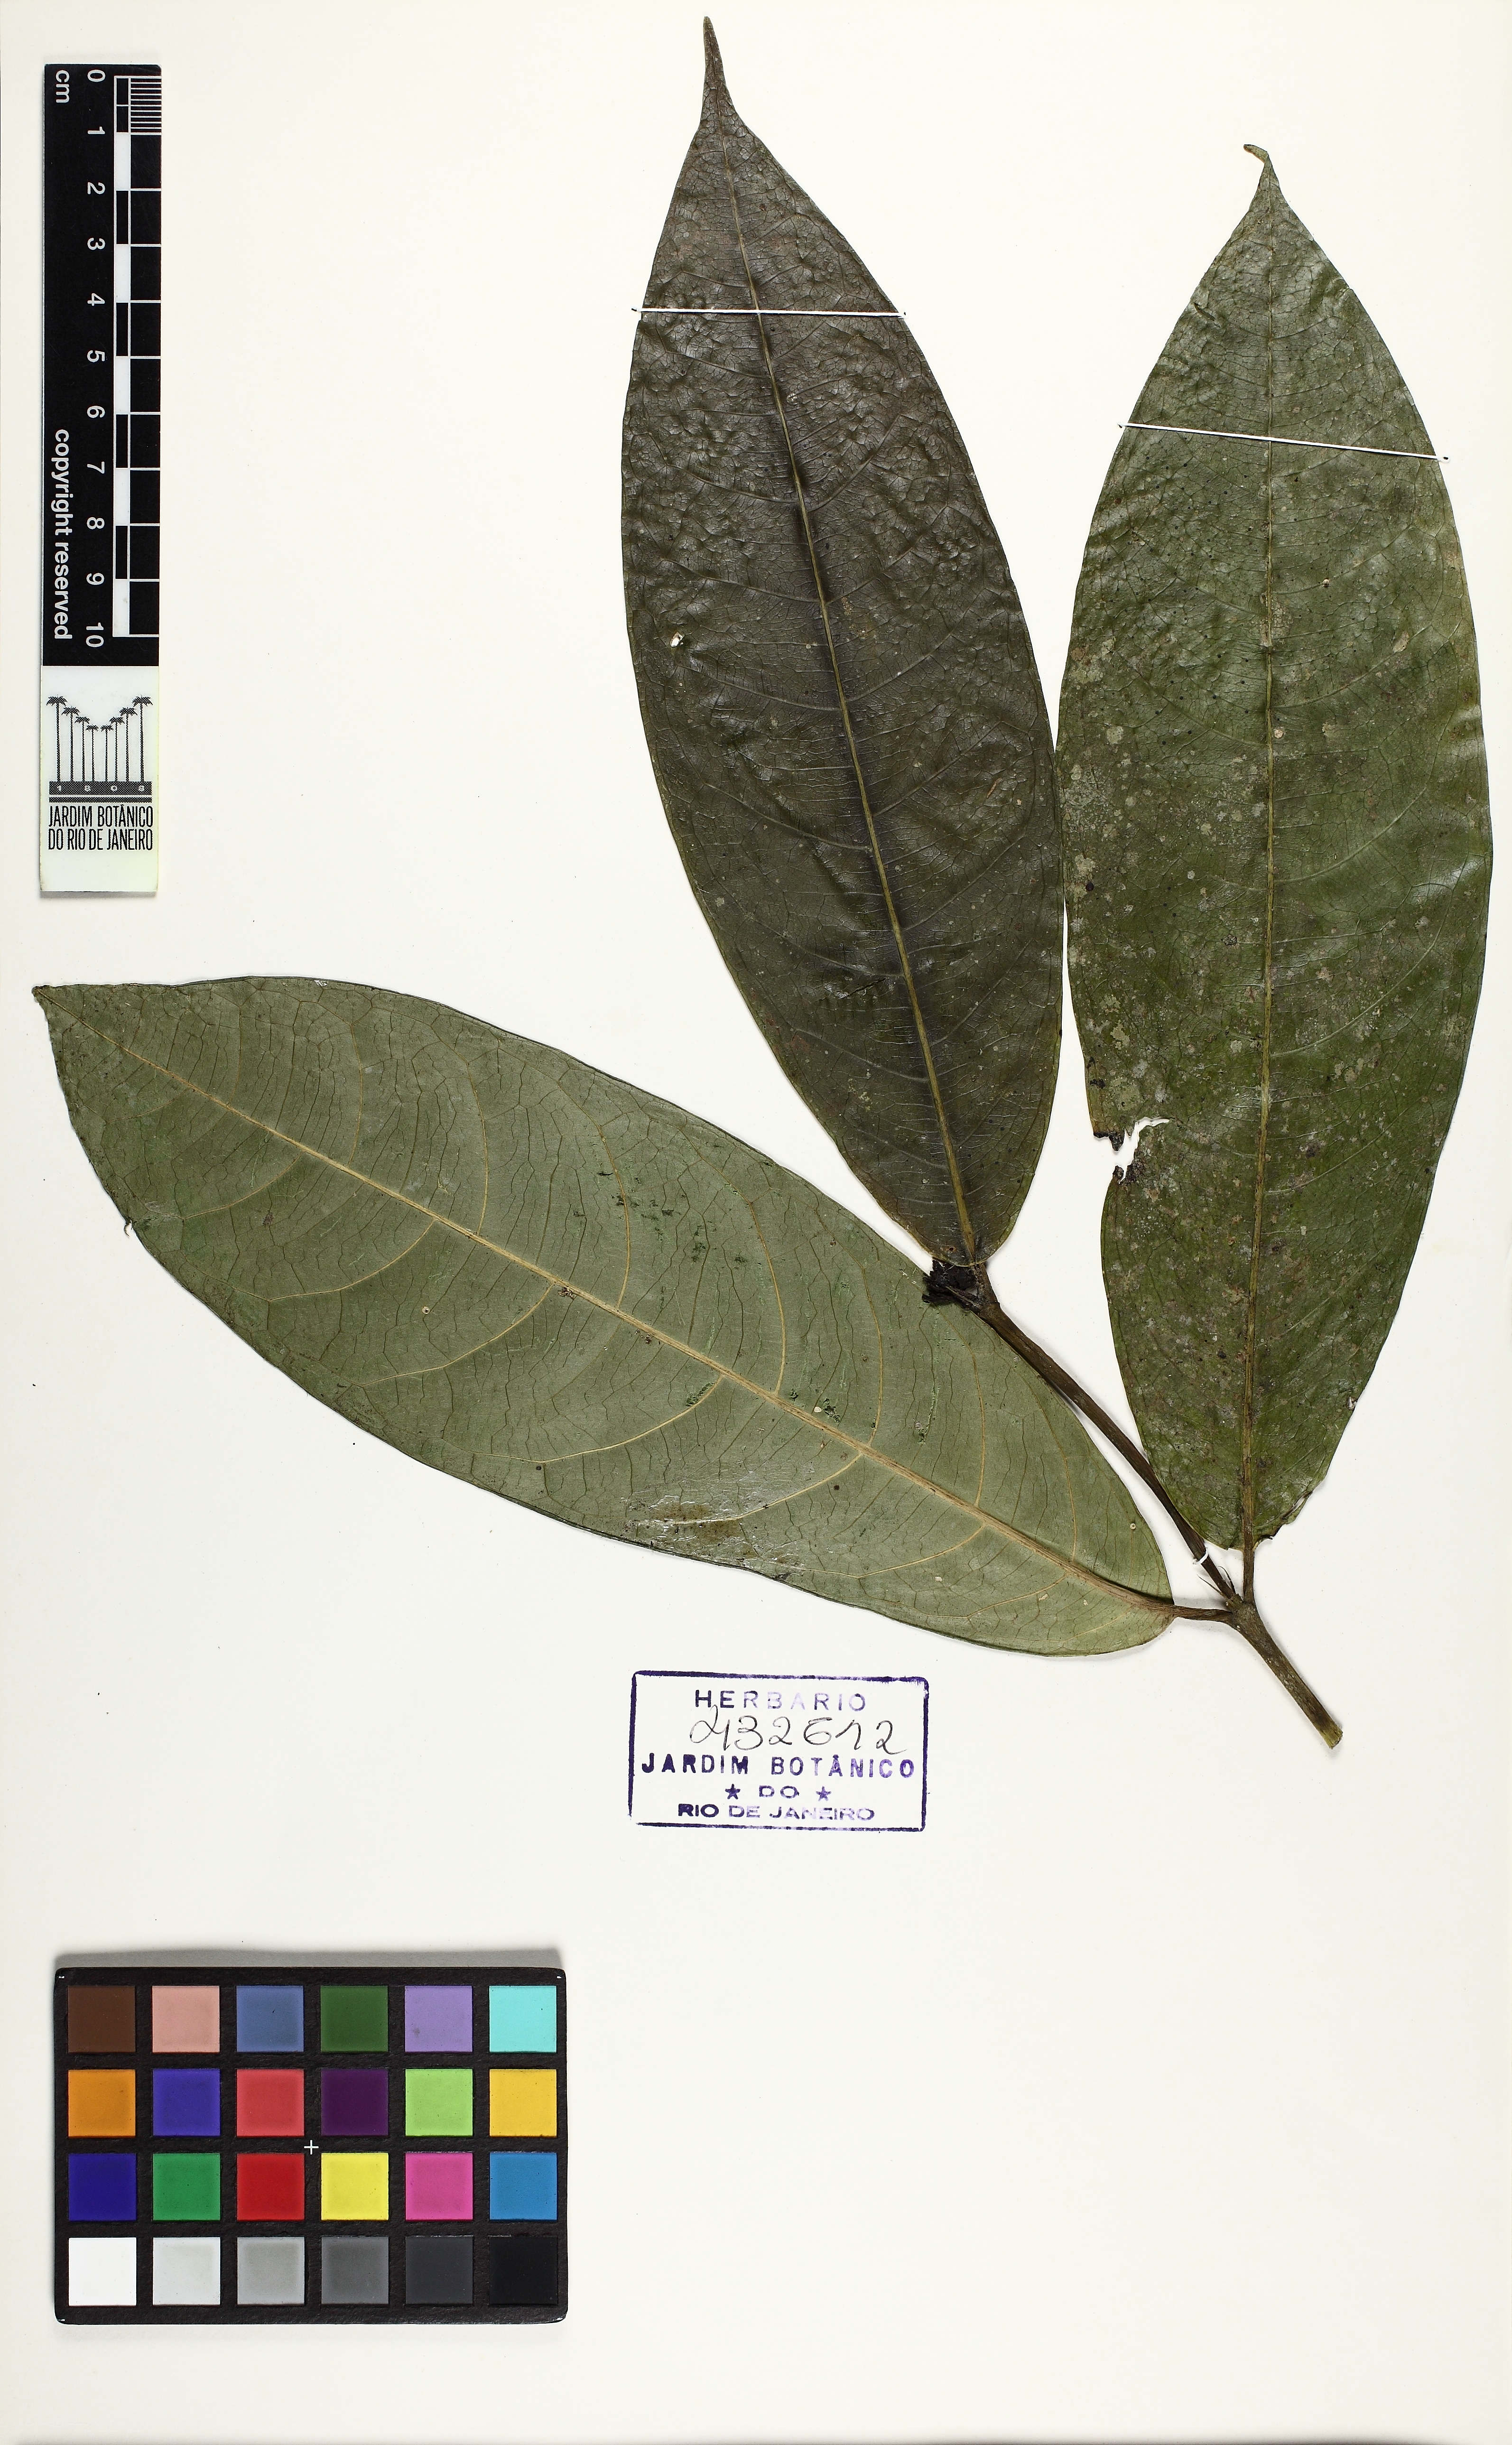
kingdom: Plantae
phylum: Tracheophyta
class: Magnoliopsida
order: Gentianales
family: Rubiaceae
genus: Faramea
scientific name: Faramea
